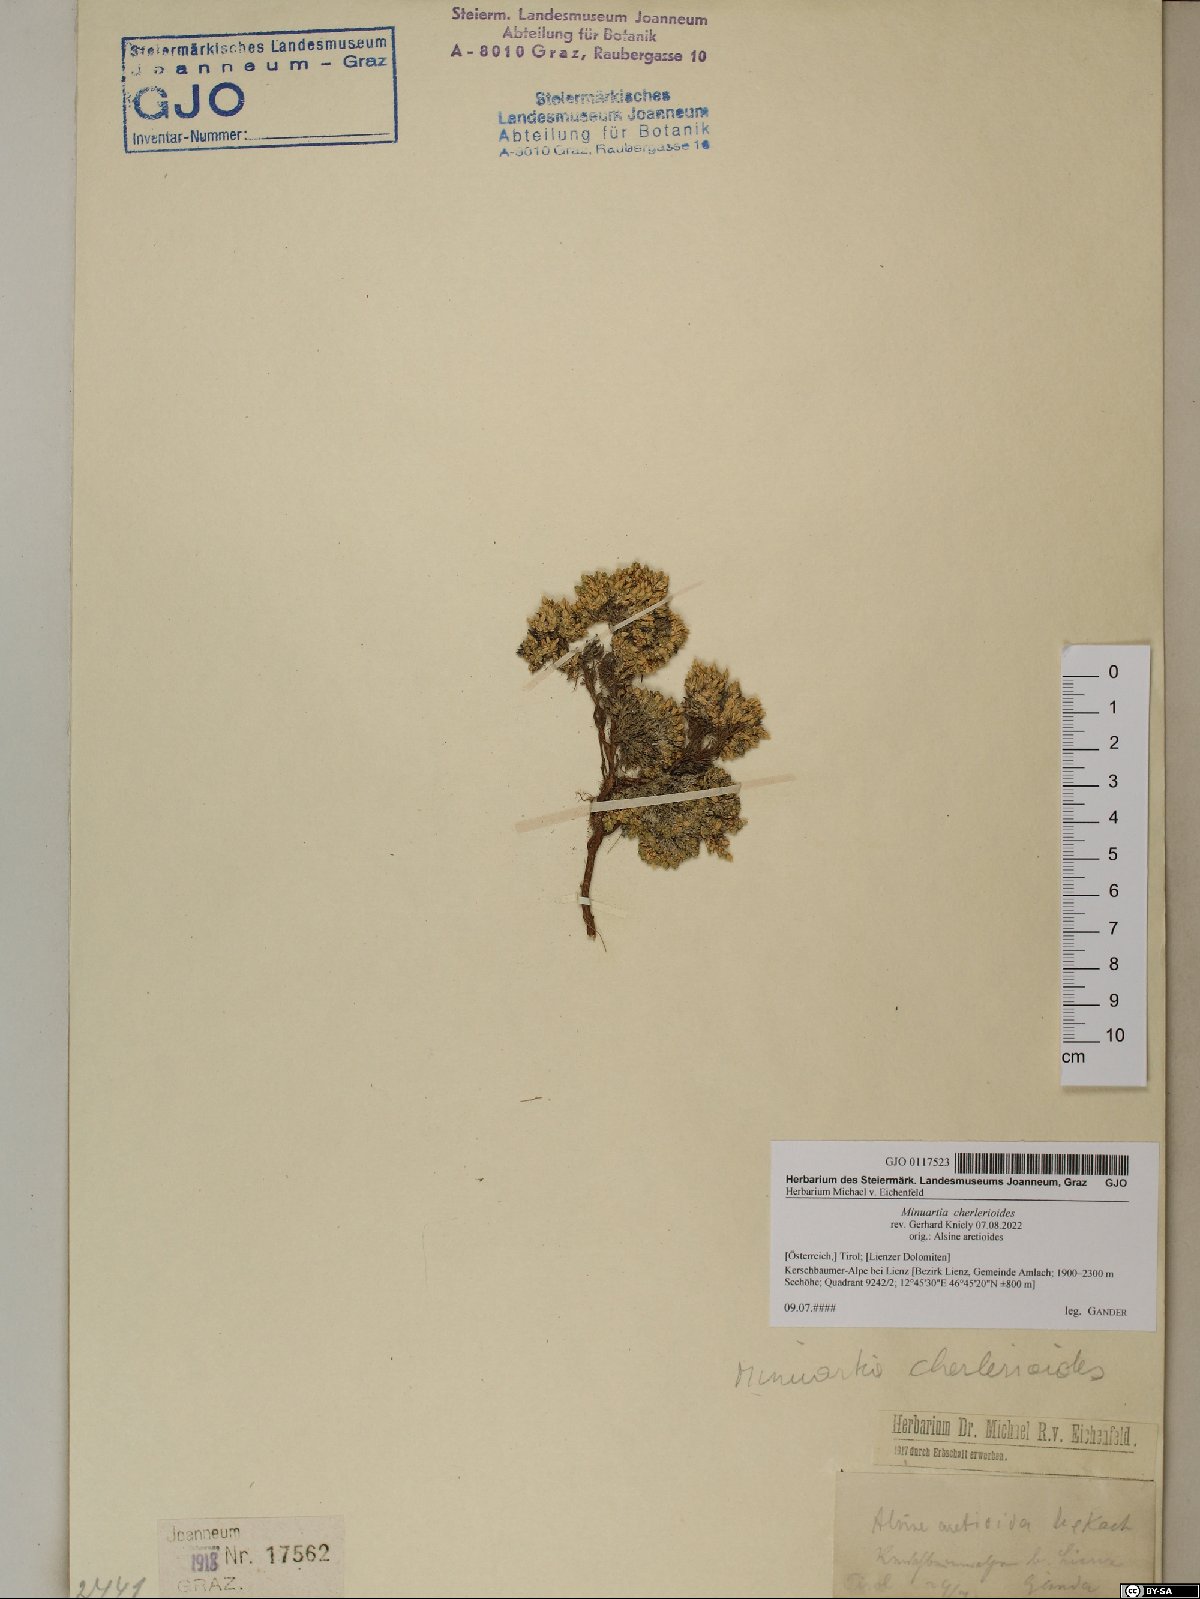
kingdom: Plantae
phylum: Tracheophyta
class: Magnoliopsida
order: Caryophyllales
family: Caryophyllaceae
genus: Facchinia
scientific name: Facchinia cherlerioides
